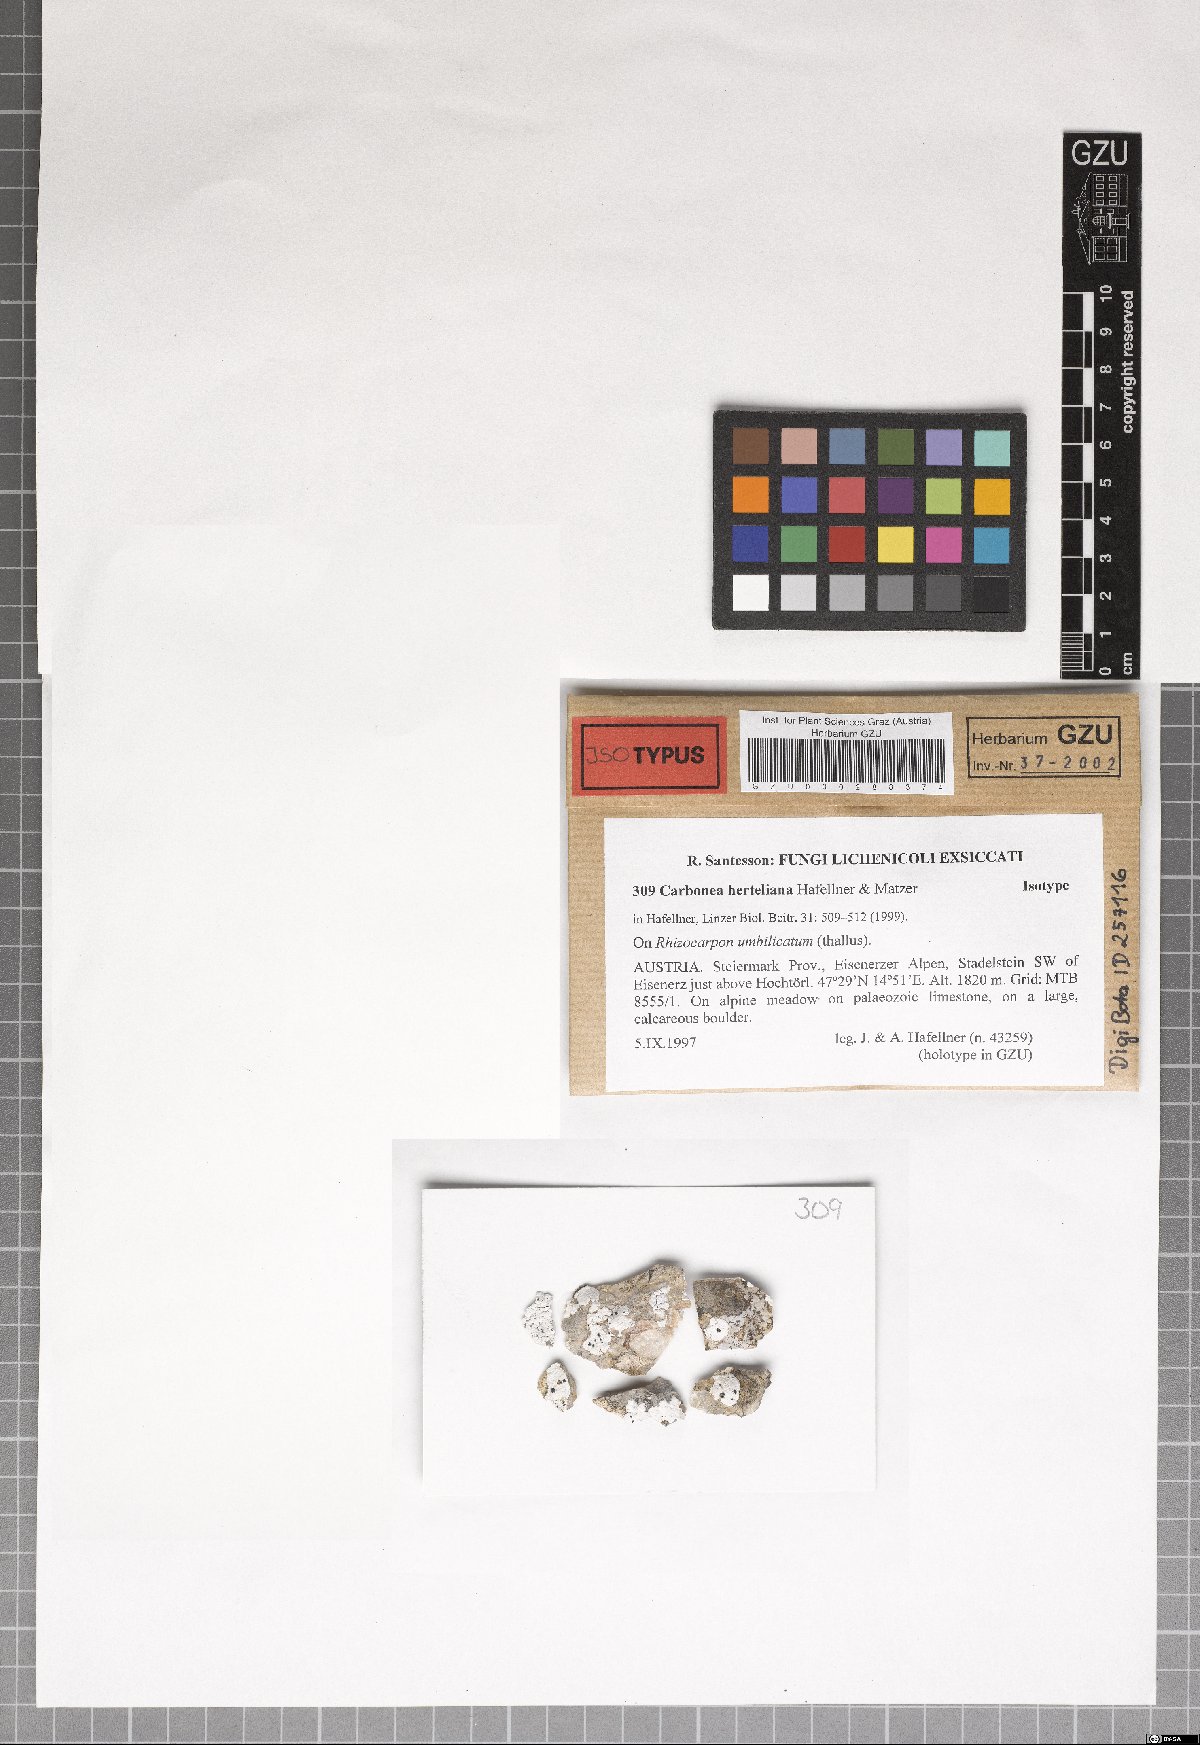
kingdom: Fungi
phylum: Ascomycota
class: Lecanoromycetes
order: Teloschistales
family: Teloschistaceae
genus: Huea
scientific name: Huea Carbonea herteliana
